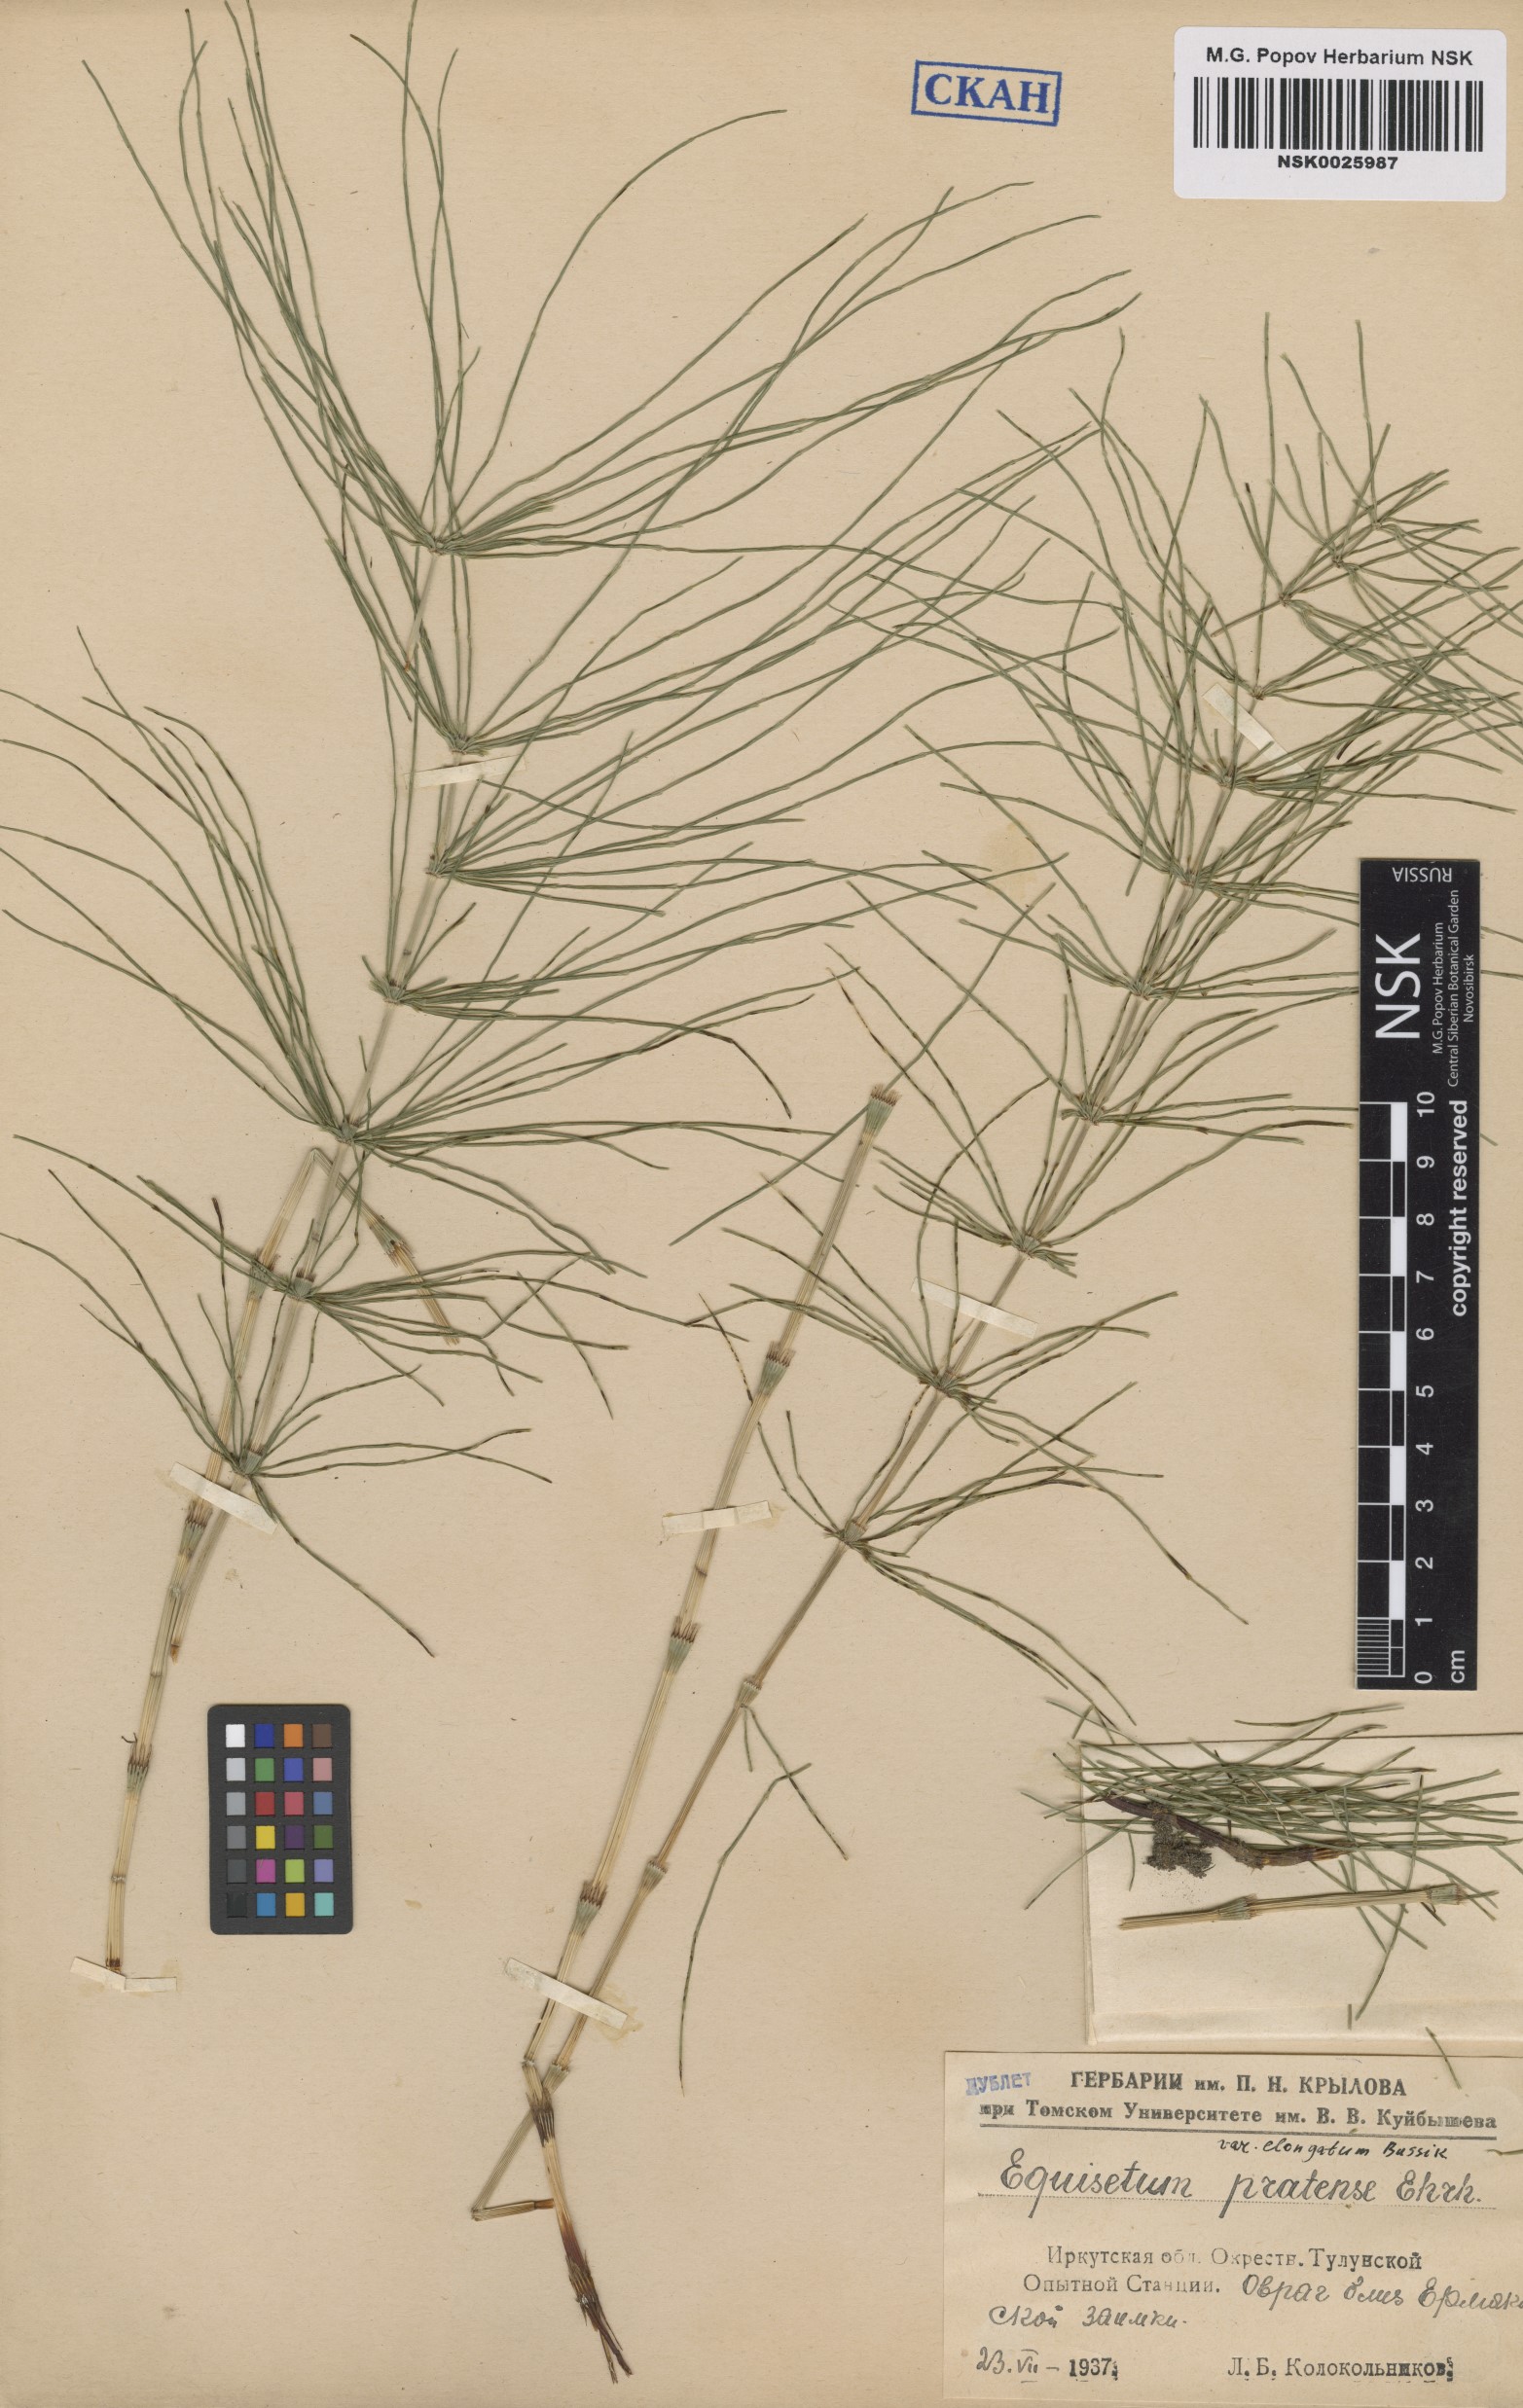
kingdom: Plantae
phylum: Tracheophyta
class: Polypodiopsida
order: Equisetales
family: Equisetaceae
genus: Equisetum
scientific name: Equisetum pratense
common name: Meadow horsetail
